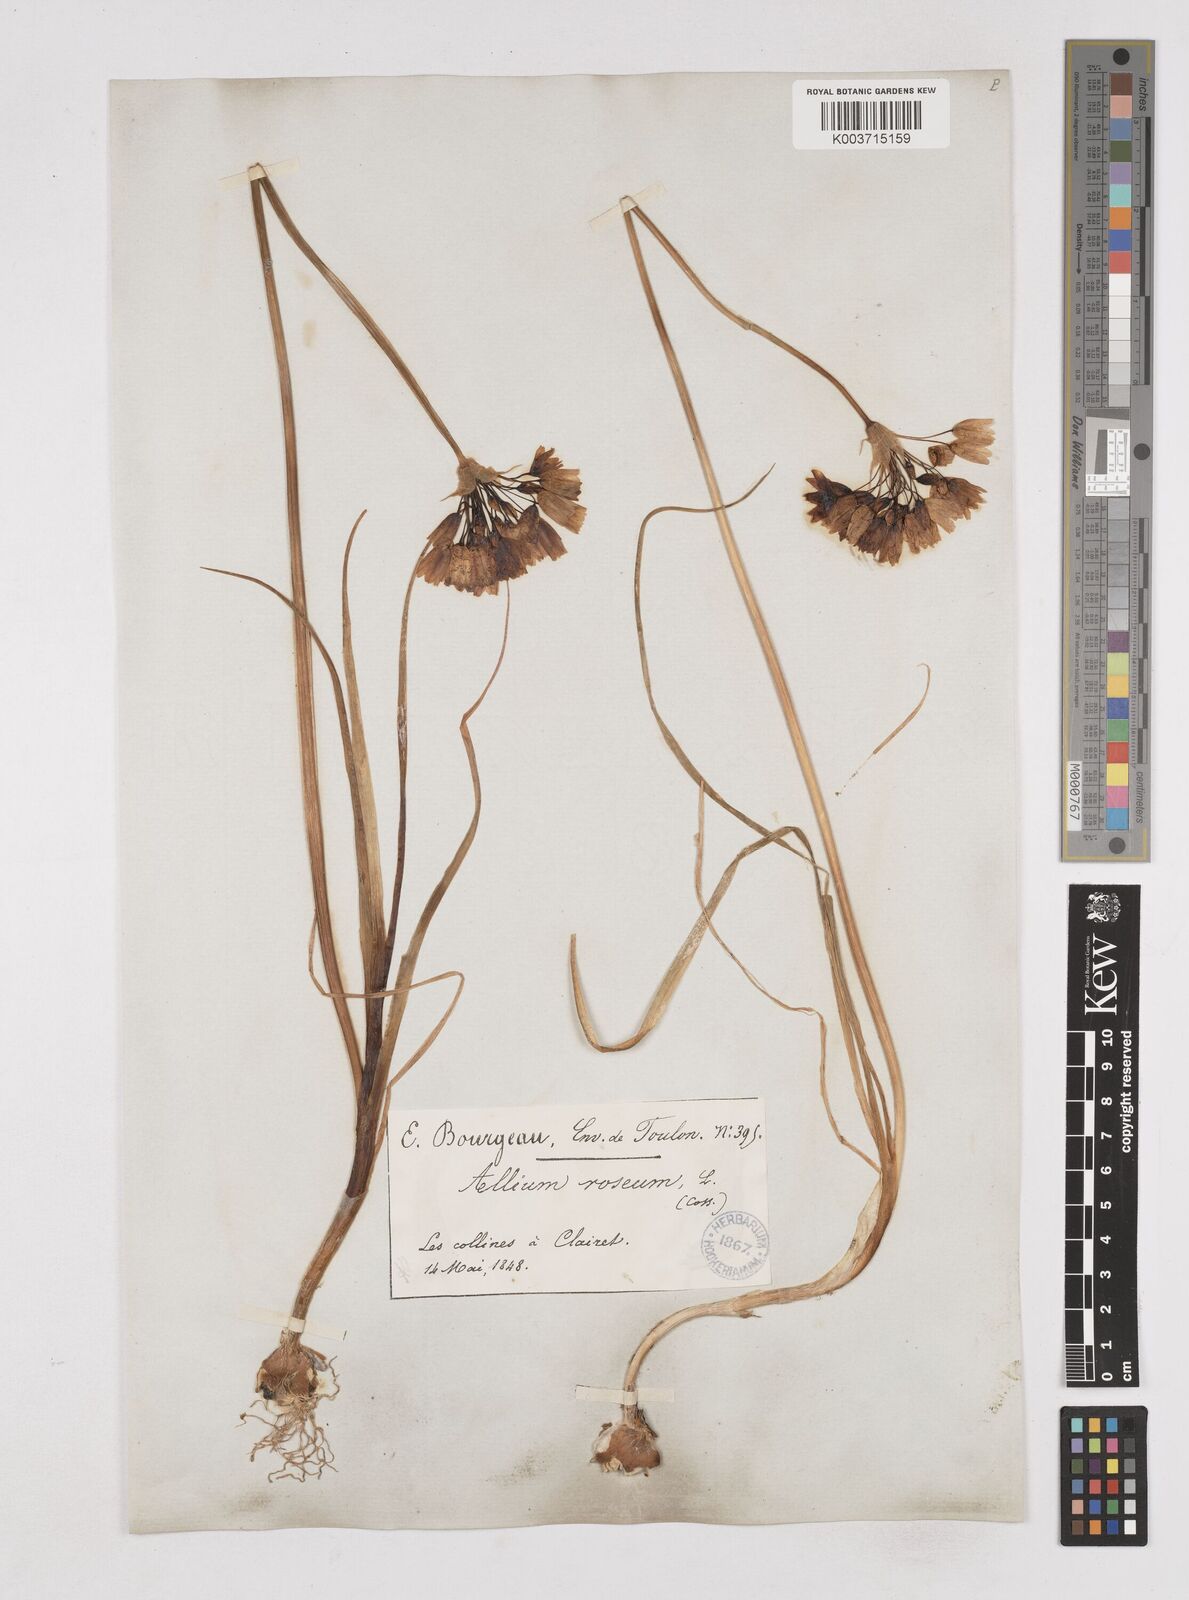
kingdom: Plantae
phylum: Tracheophyta
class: Liliopsida
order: Asparagales
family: Amaryllidaceae
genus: Allium
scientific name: Allium roseum
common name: Rosy garlic
